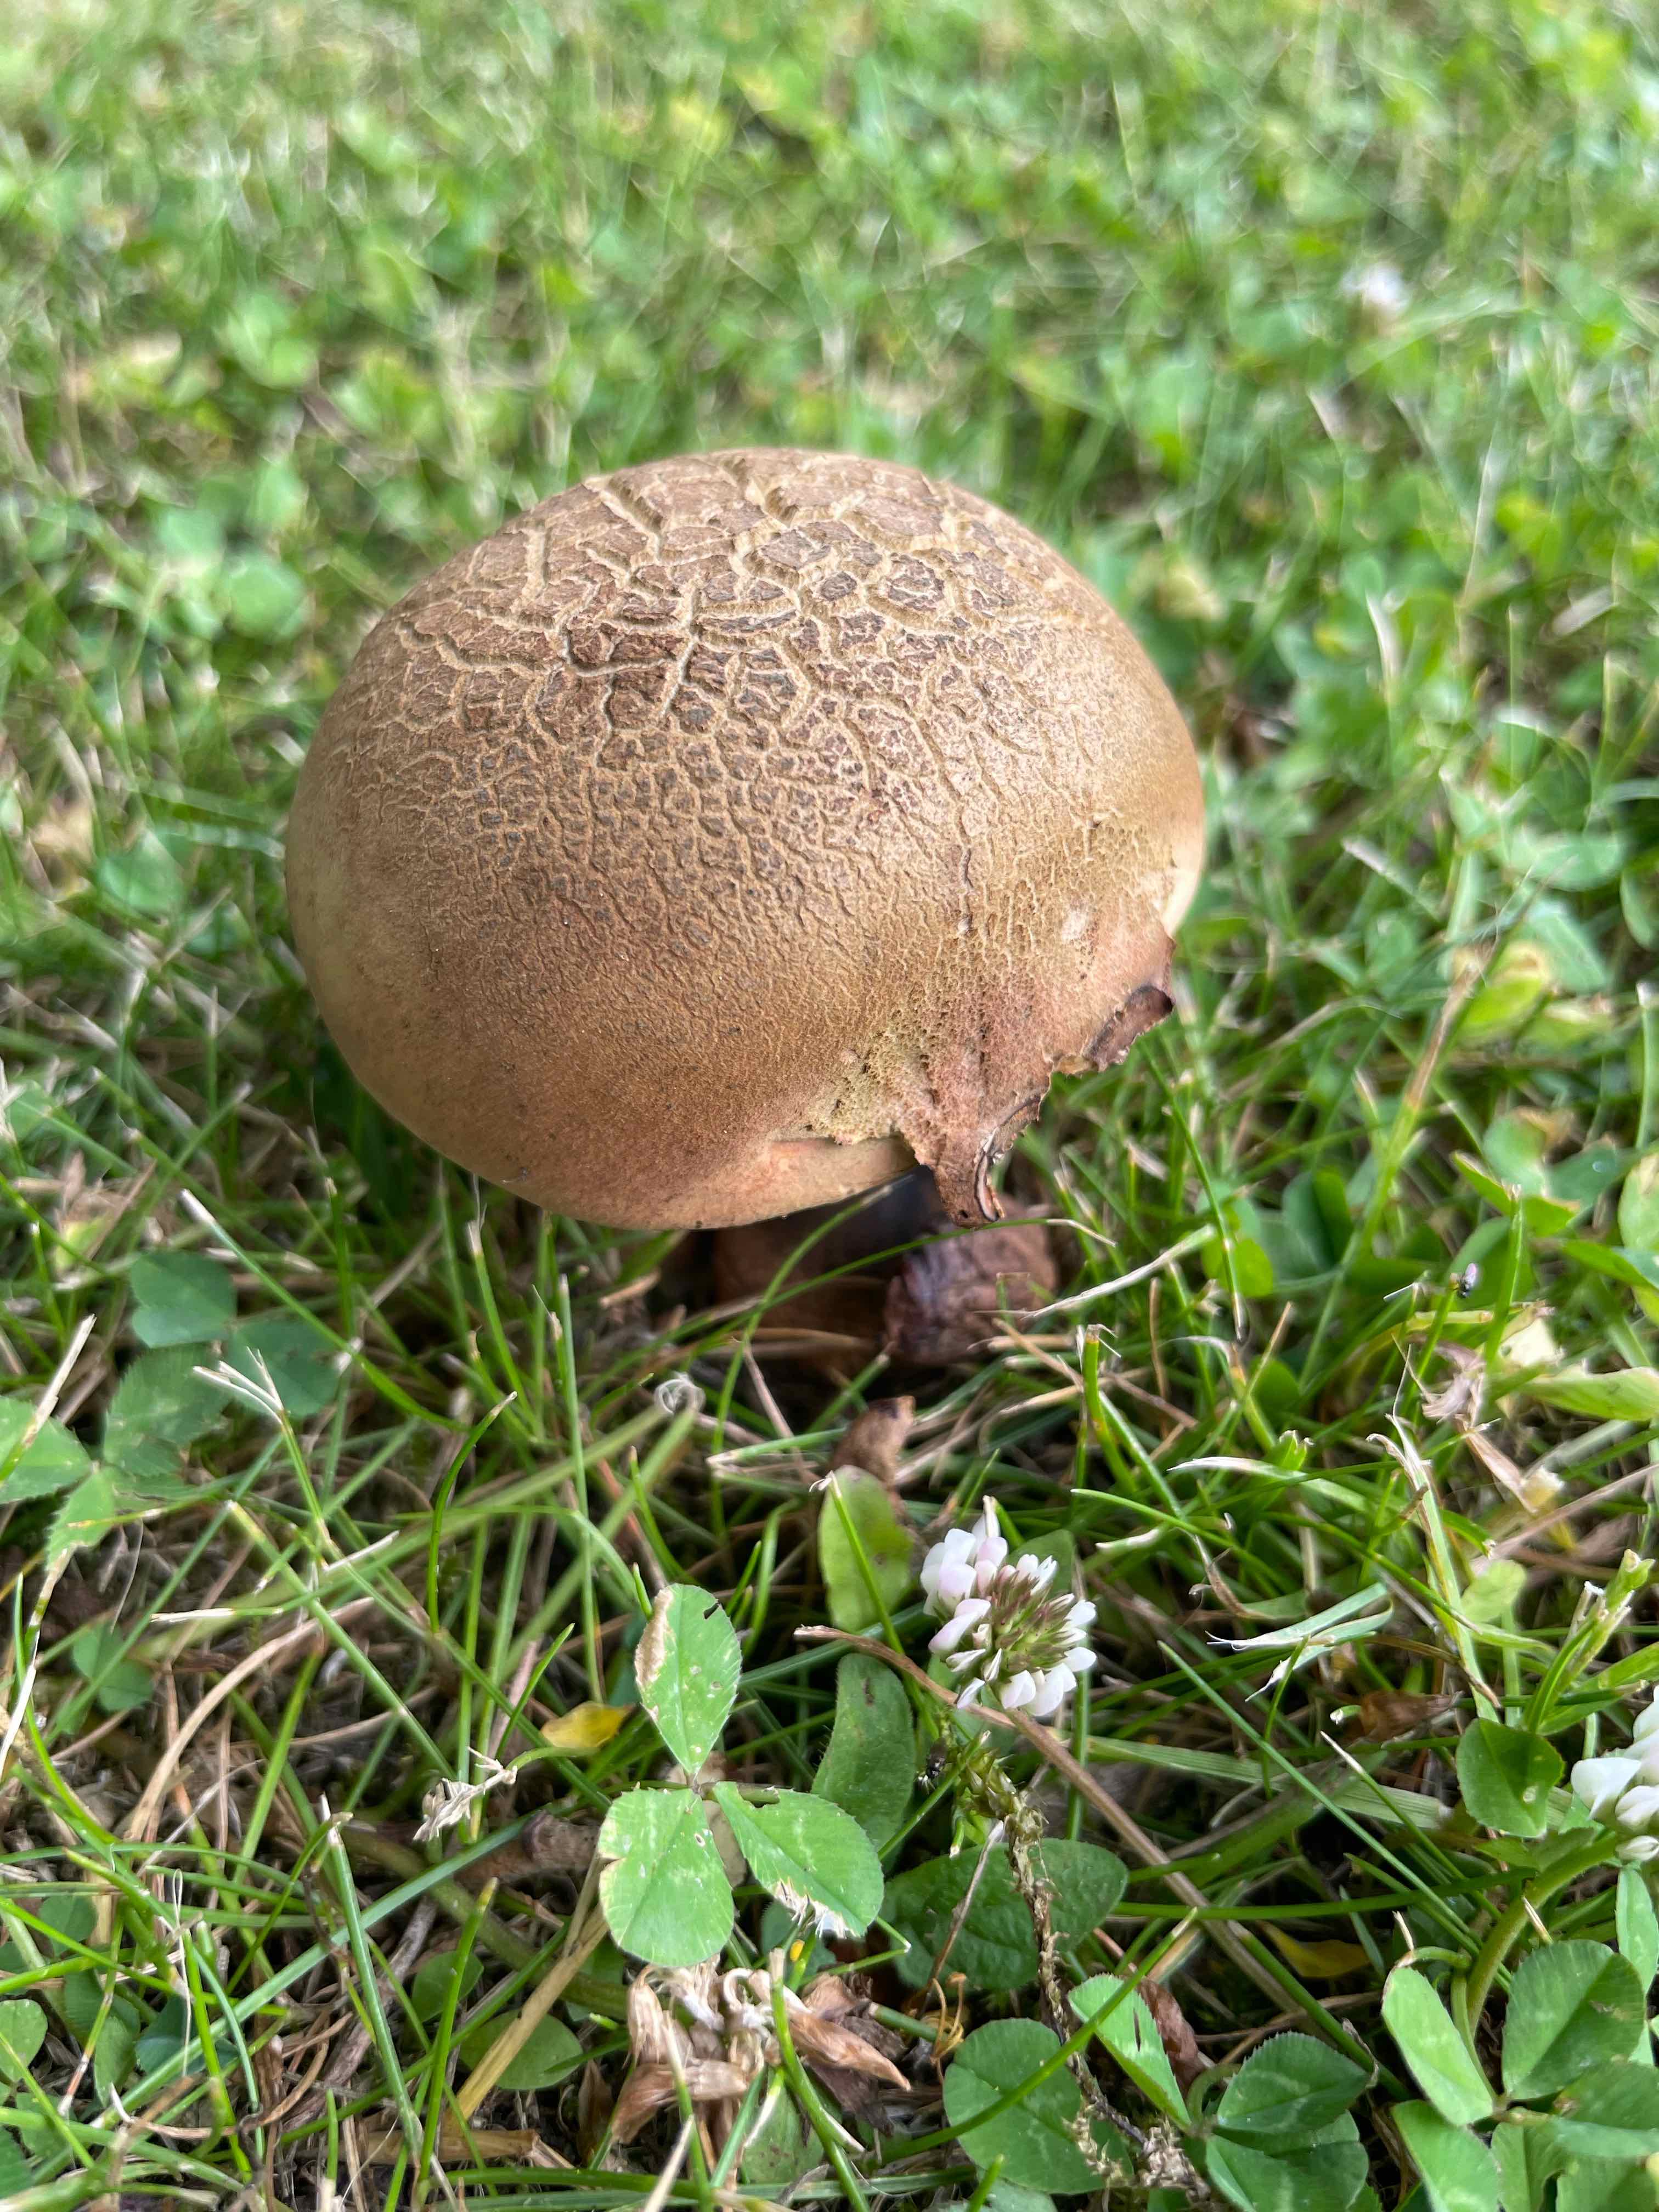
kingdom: Fungi
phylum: Basidiomycota
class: Agaricomycetes
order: Boletales
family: Boletaceae
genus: Suillellus
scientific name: Suillellus luridus
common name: netstokket indigorørhat
